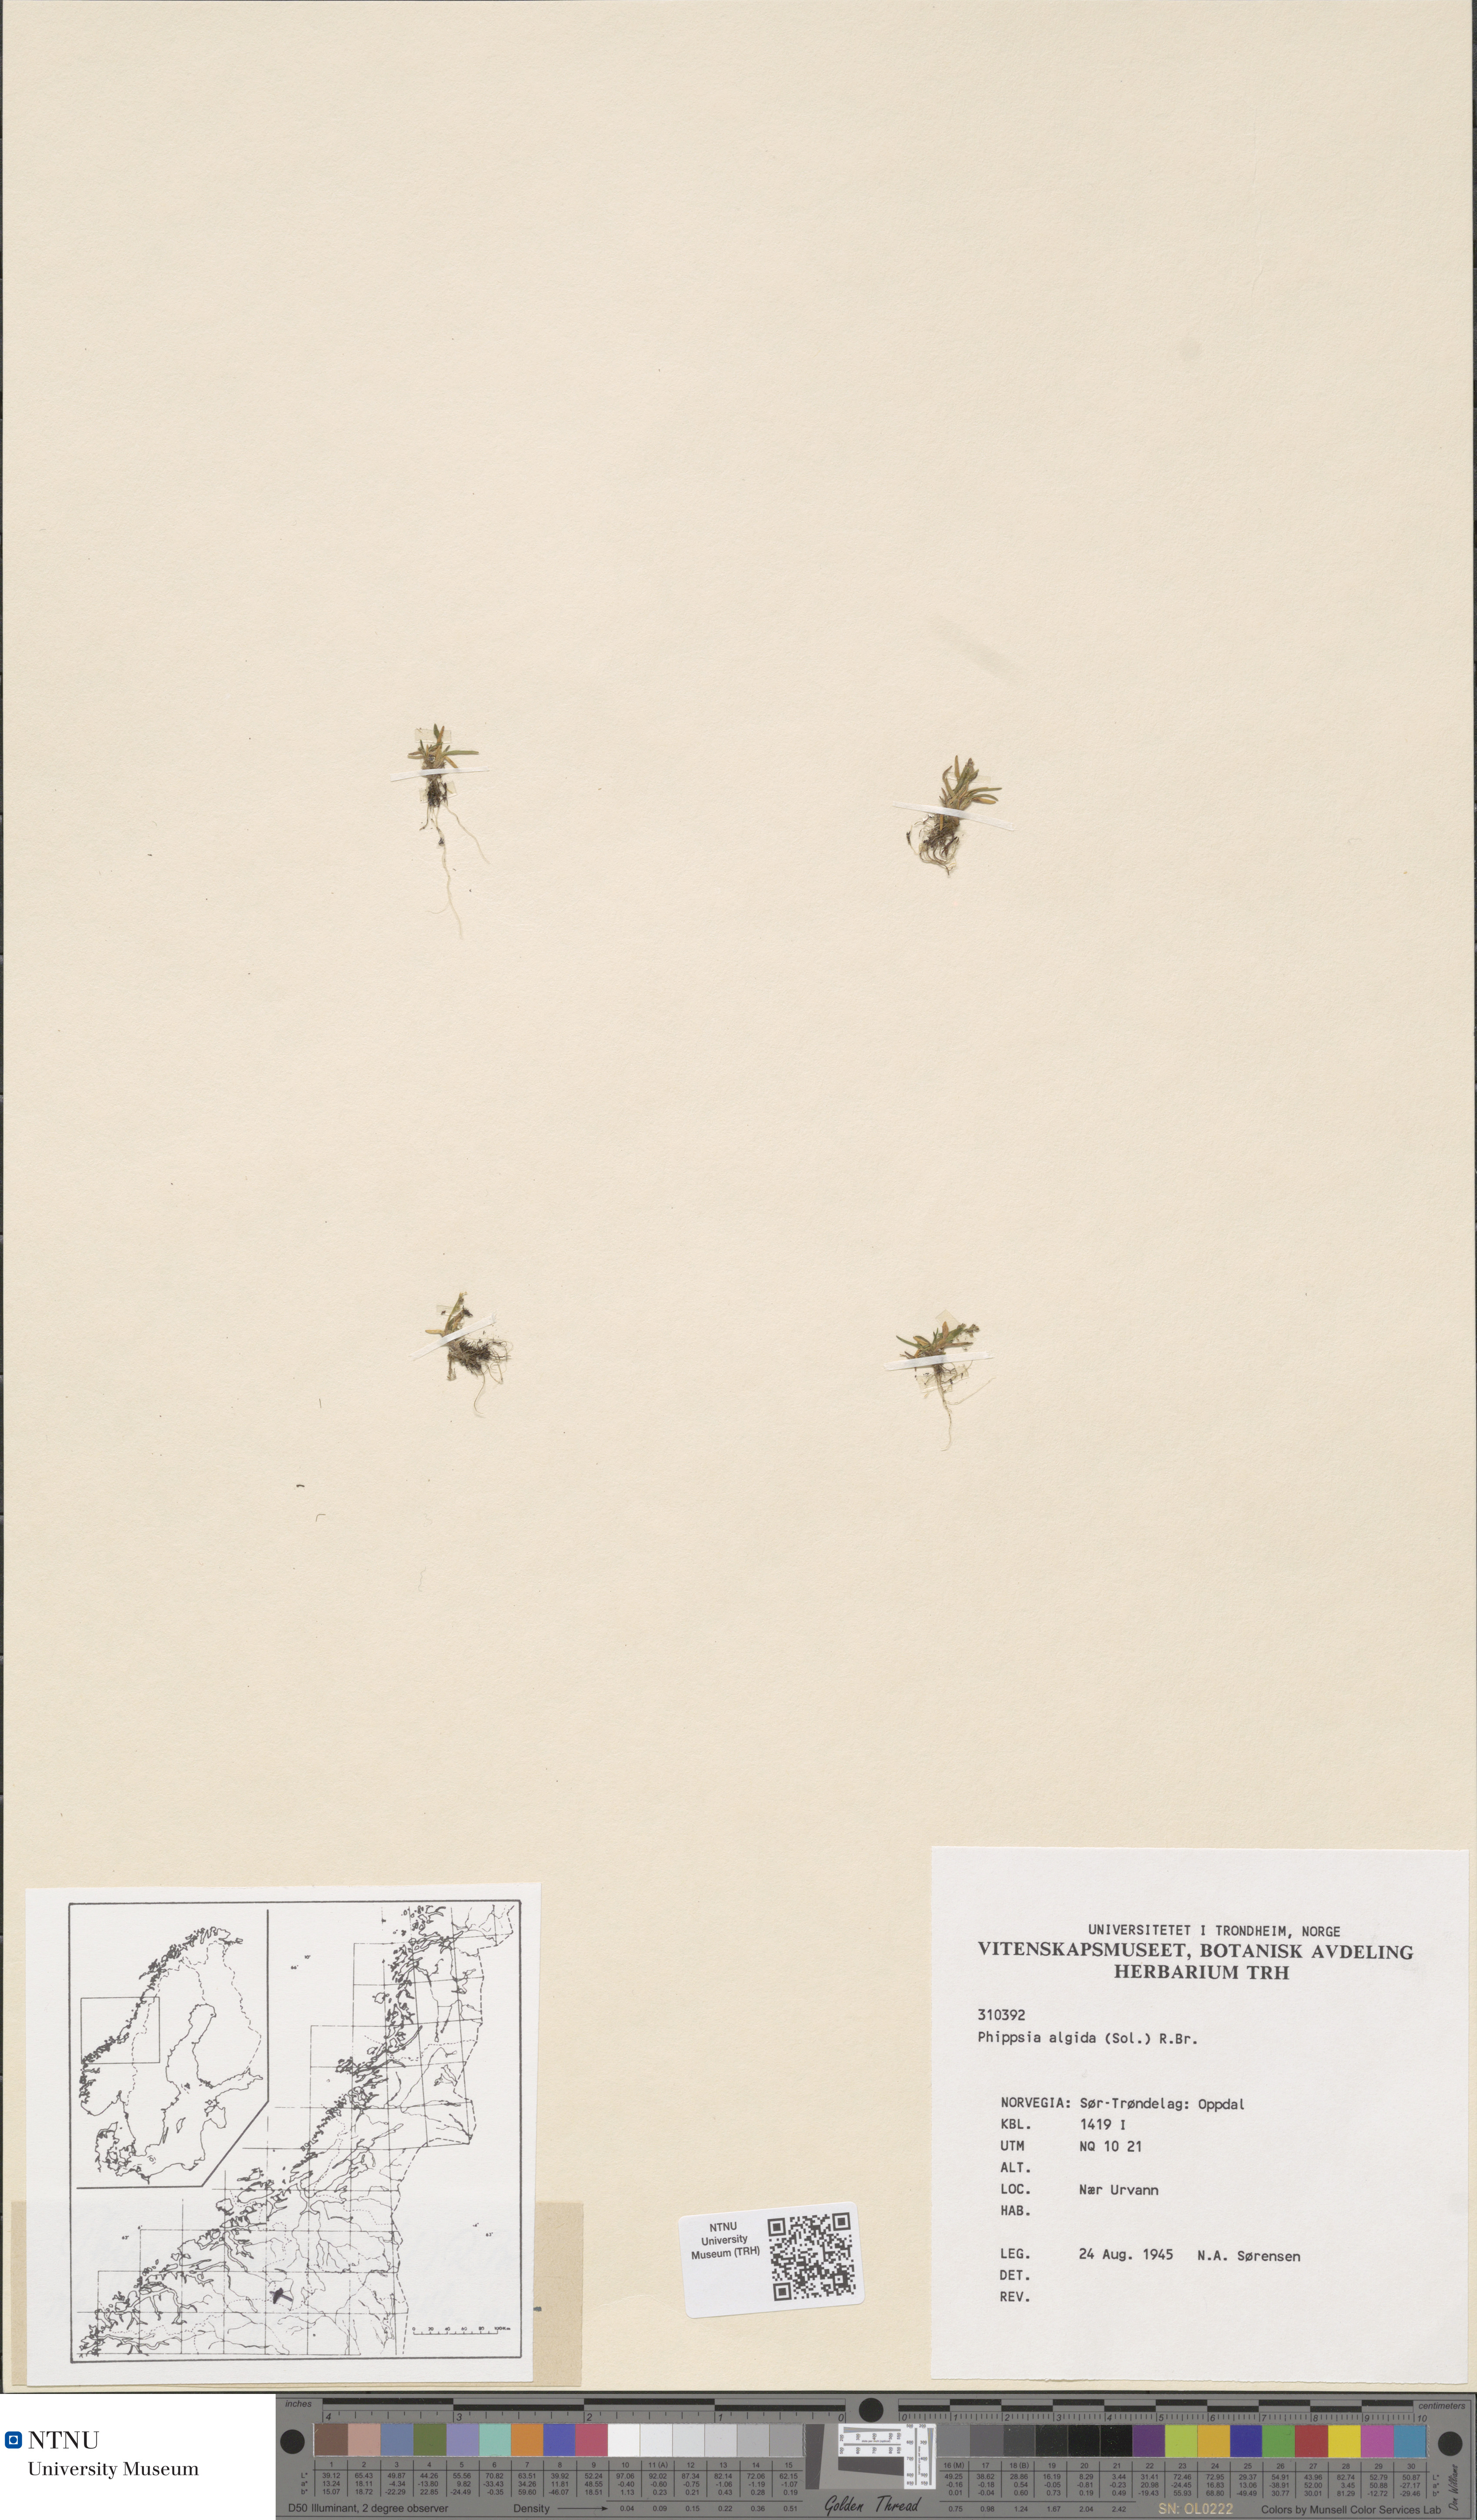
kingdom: Plantae
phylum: Tracheophyta
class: Liliopsida
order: Poales
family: Poaceae
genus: Phippsia
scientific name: Phippsia algida
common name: Ice grass
